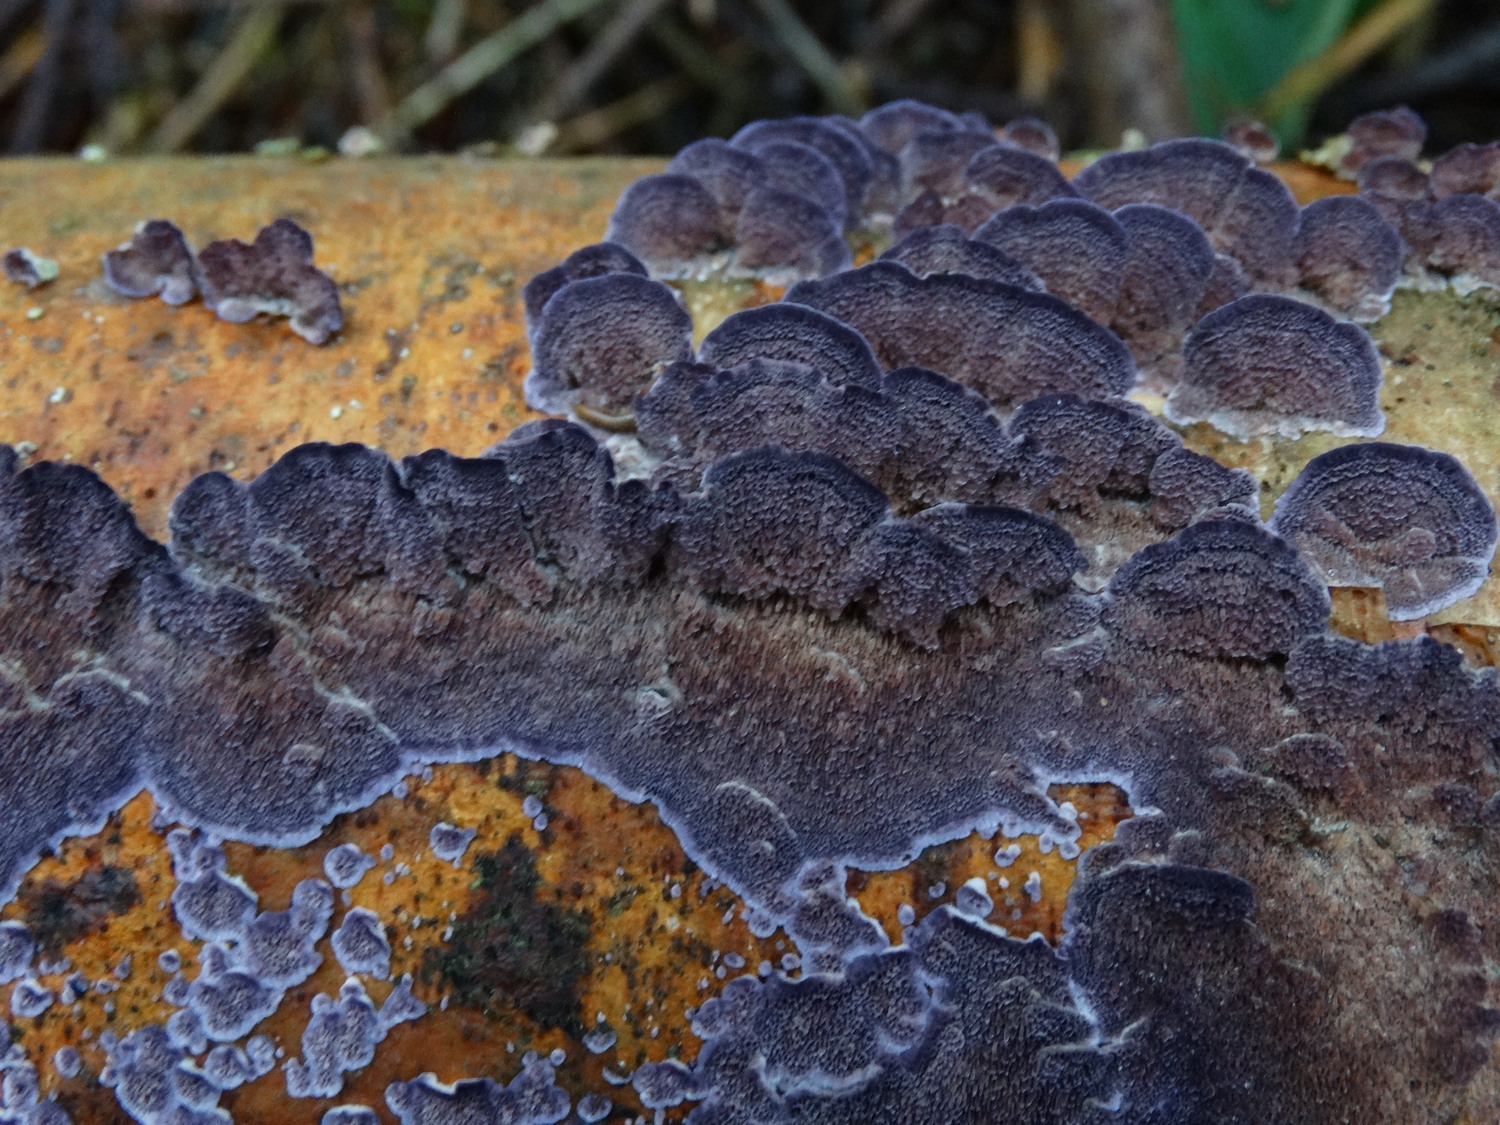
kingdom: Fungi
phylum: Basidiomycota
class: Agaricomycetes
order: Hymenochaetales
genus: Trichaptum
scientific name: Trichaptum abietinum
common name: almindelig violporesvamp
